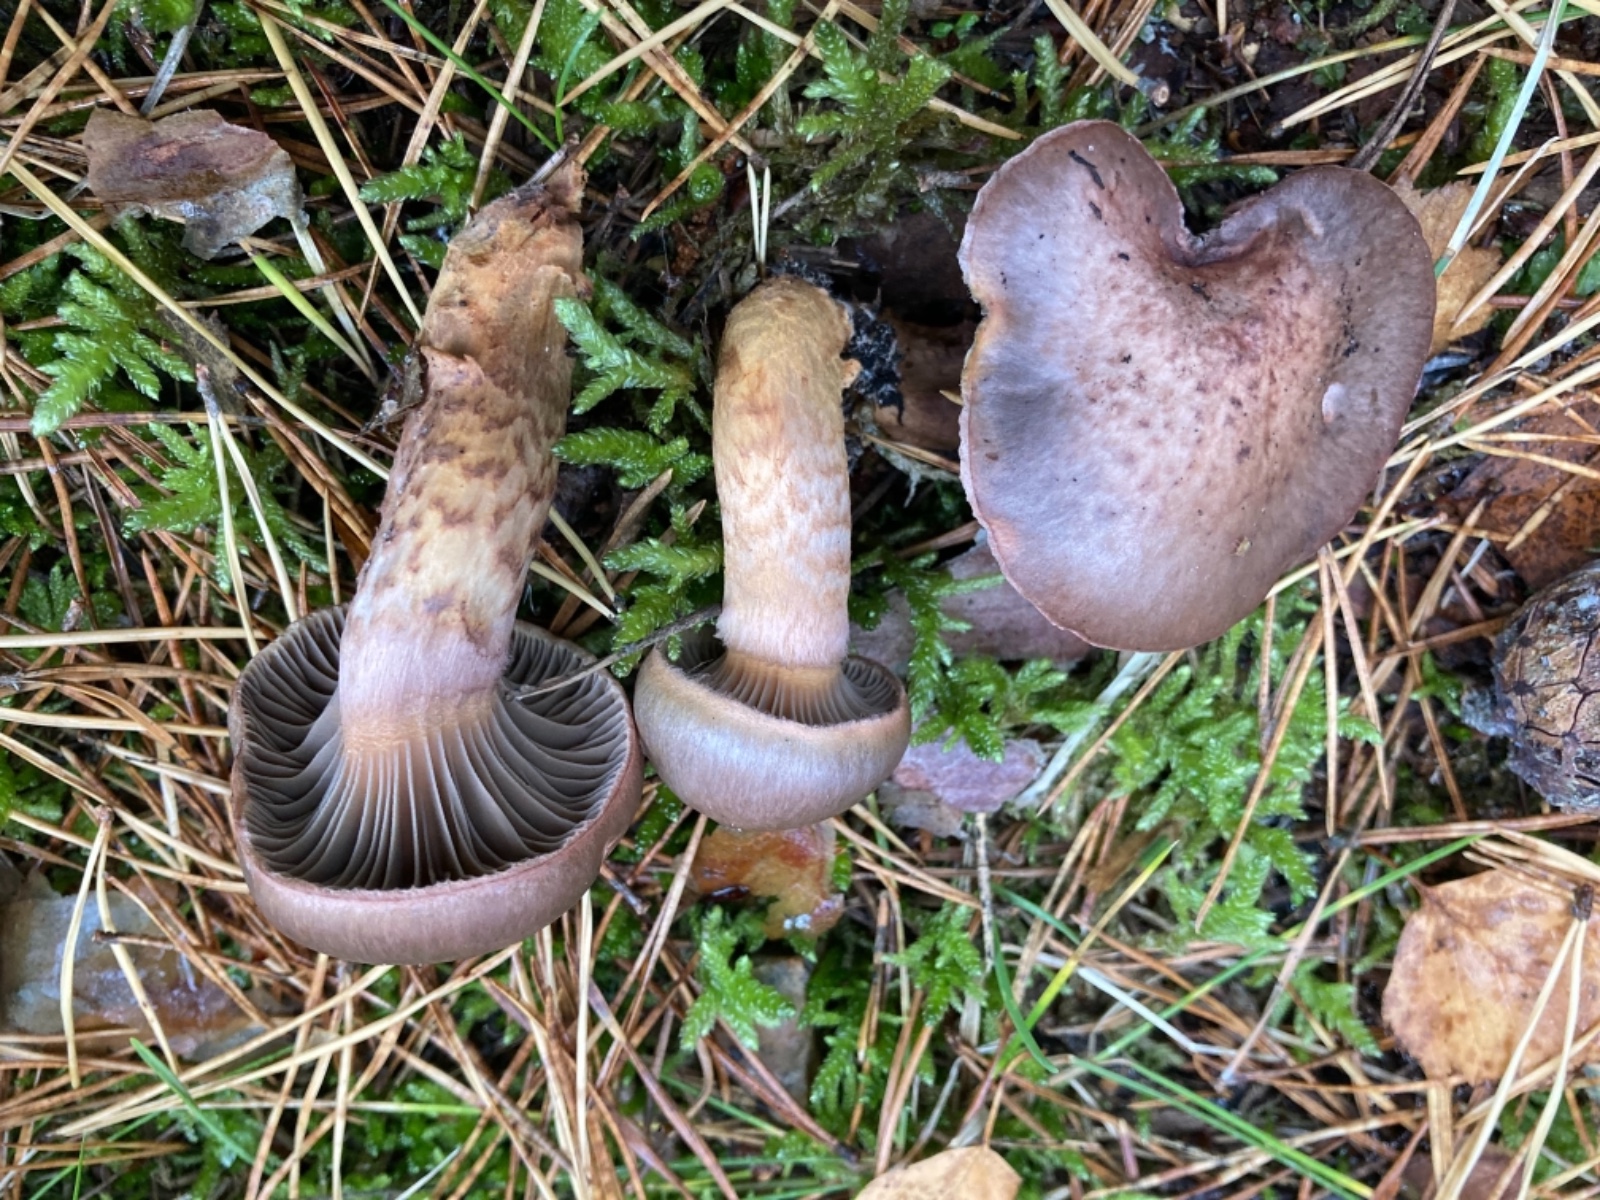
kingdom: Fungi
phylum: Basidiomycota
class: Agaricomycetes
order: Boletales
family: Gomphidiaceae
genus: Chroogomphus
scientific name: Chroogomphus rutilus
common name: brunrød slimslør
